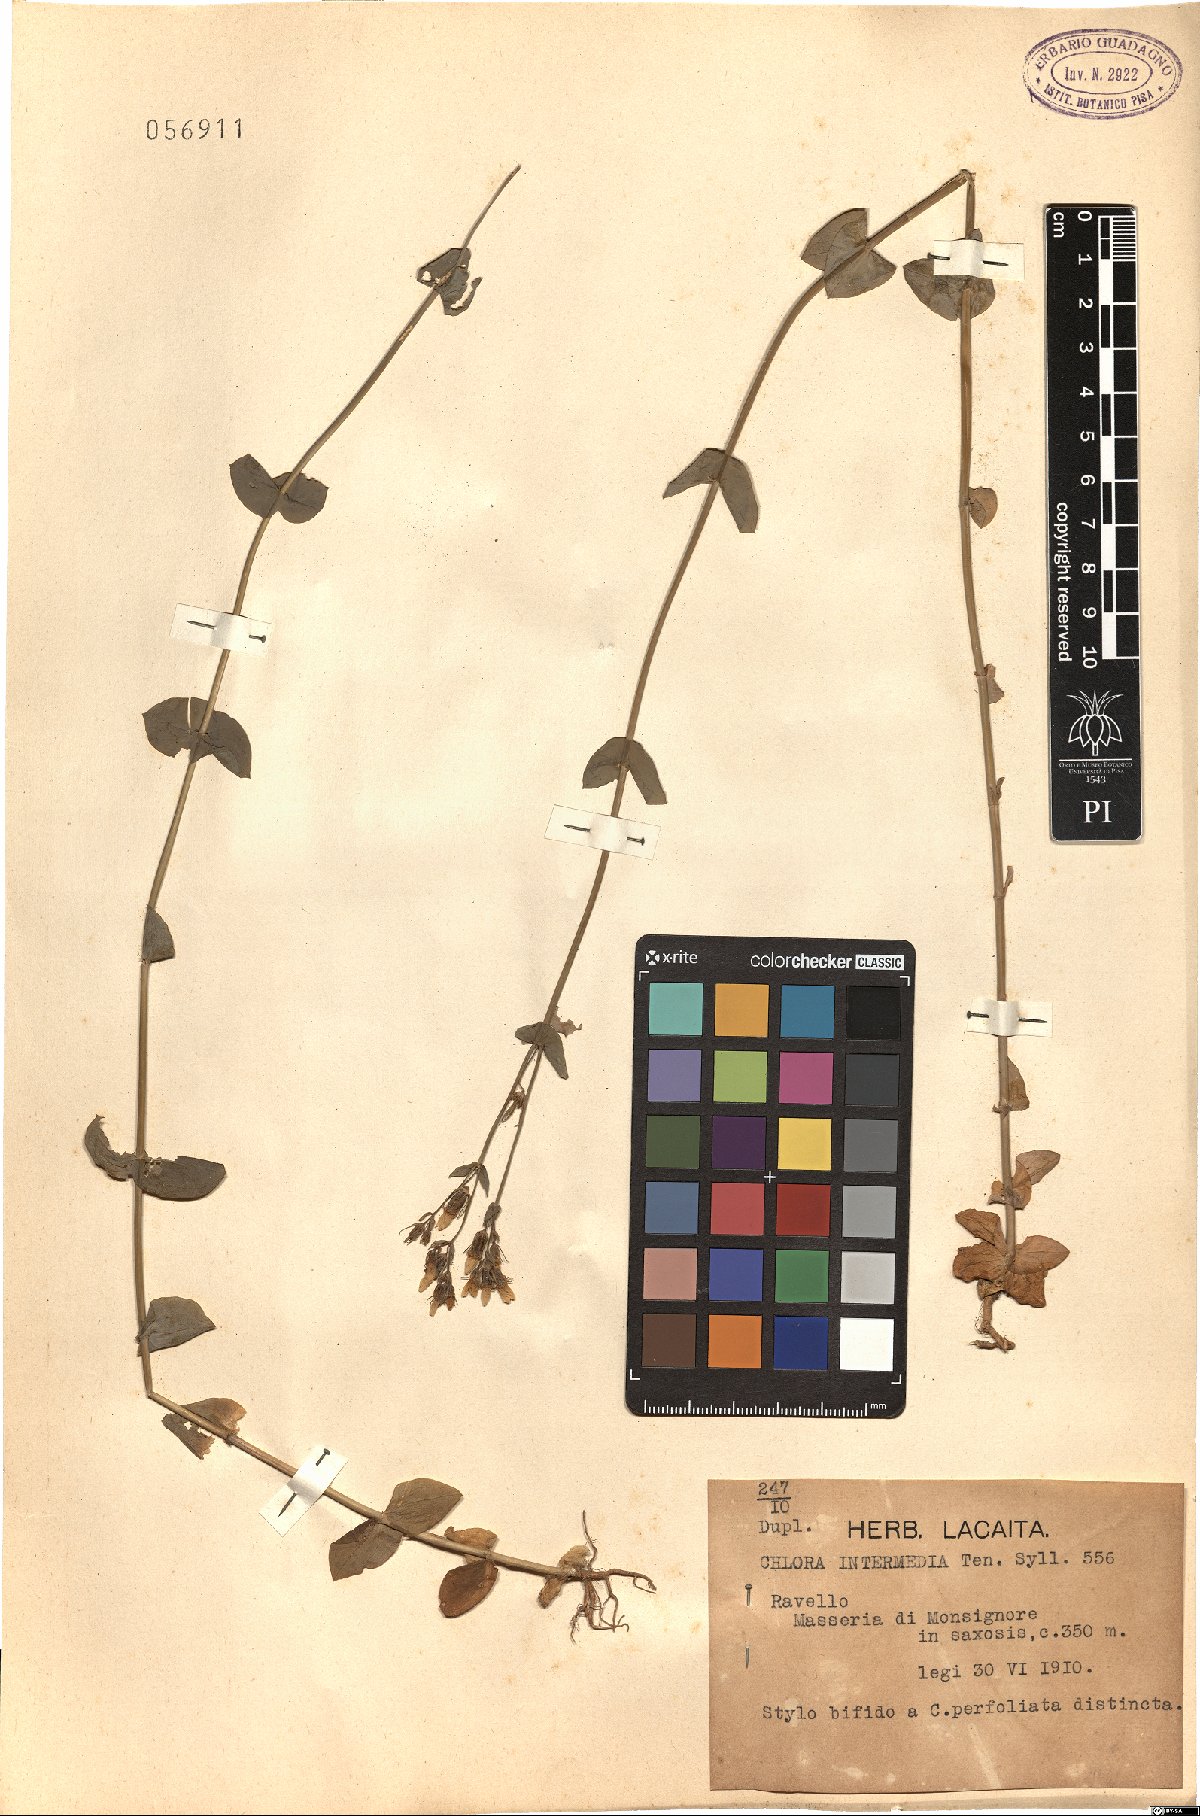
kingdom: Plantae
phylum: Tracheophyta
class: Magnoliopsida
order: Gentianales
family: Gentianaceae
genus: Blackstonia
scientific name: Blackstonia perfoliata
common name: Yellow-wort
